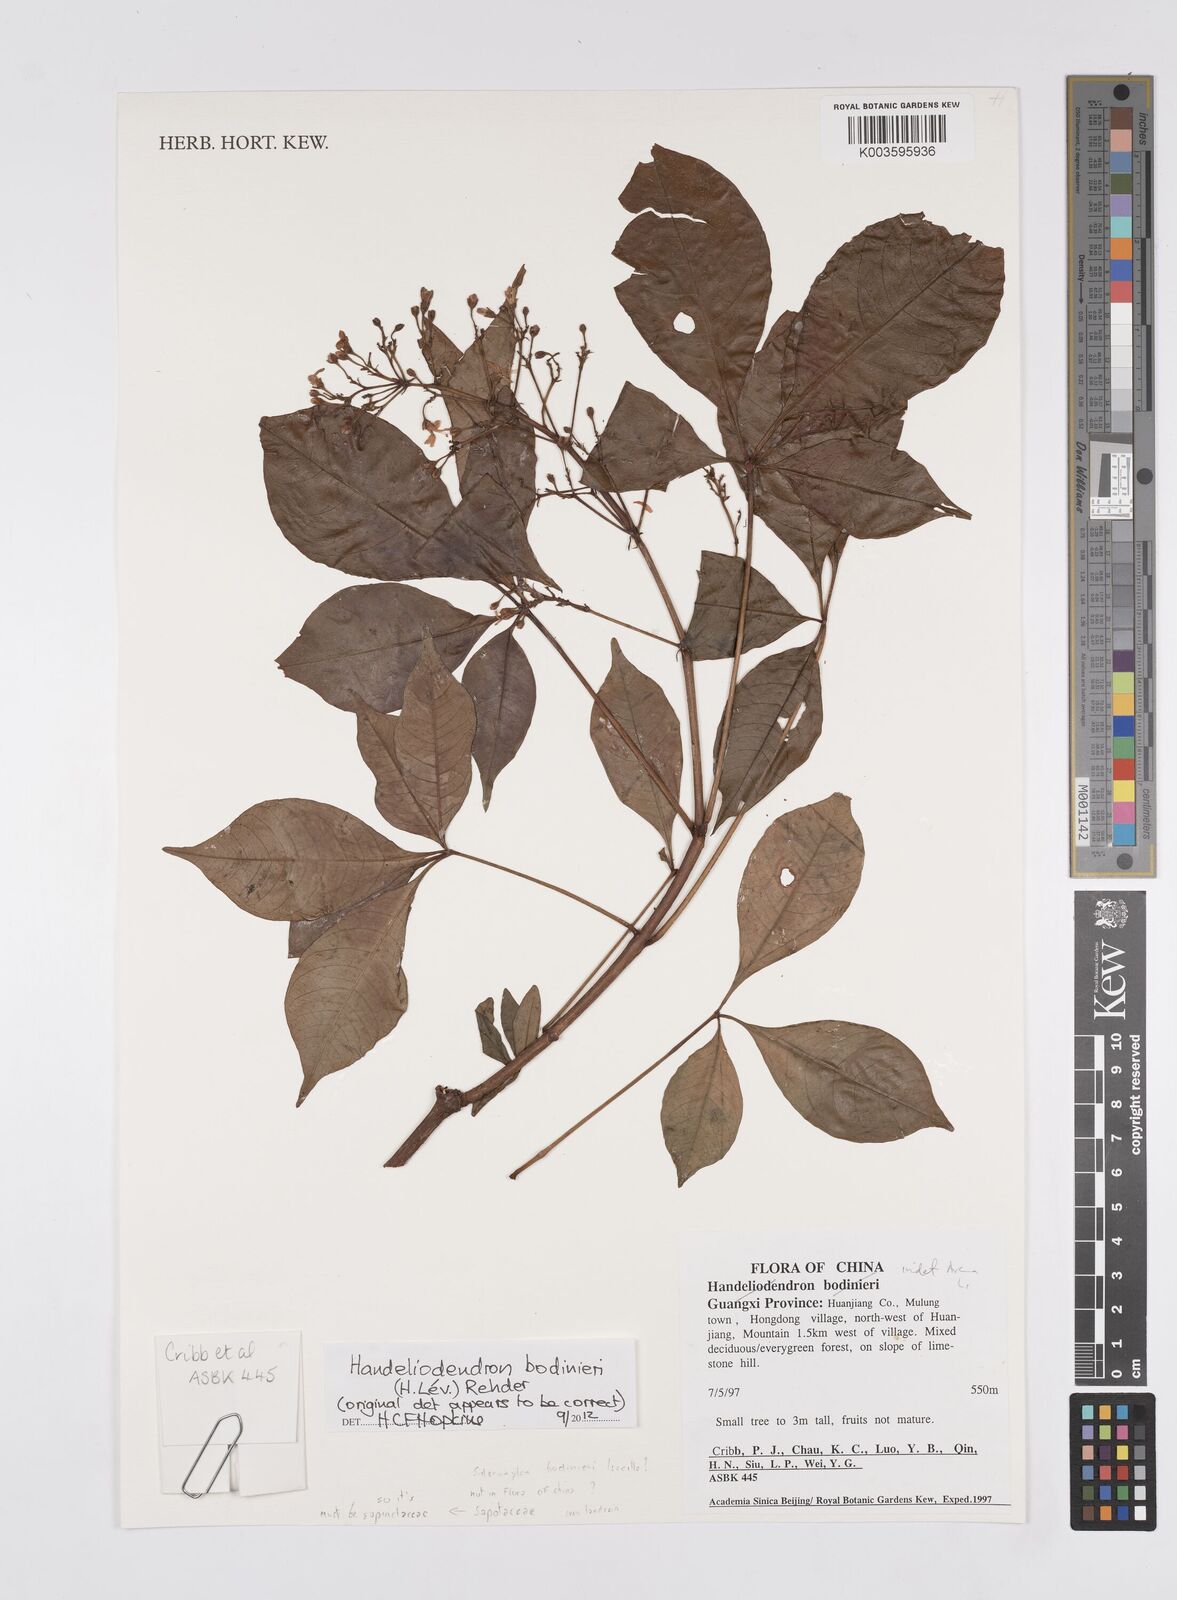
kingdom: Plantae
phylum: Tracheophyta
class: Magnoliopsida
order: Sapindales
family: Sapindaceae
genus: Handeliodendron
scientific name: Handeliodendron bodinieri
